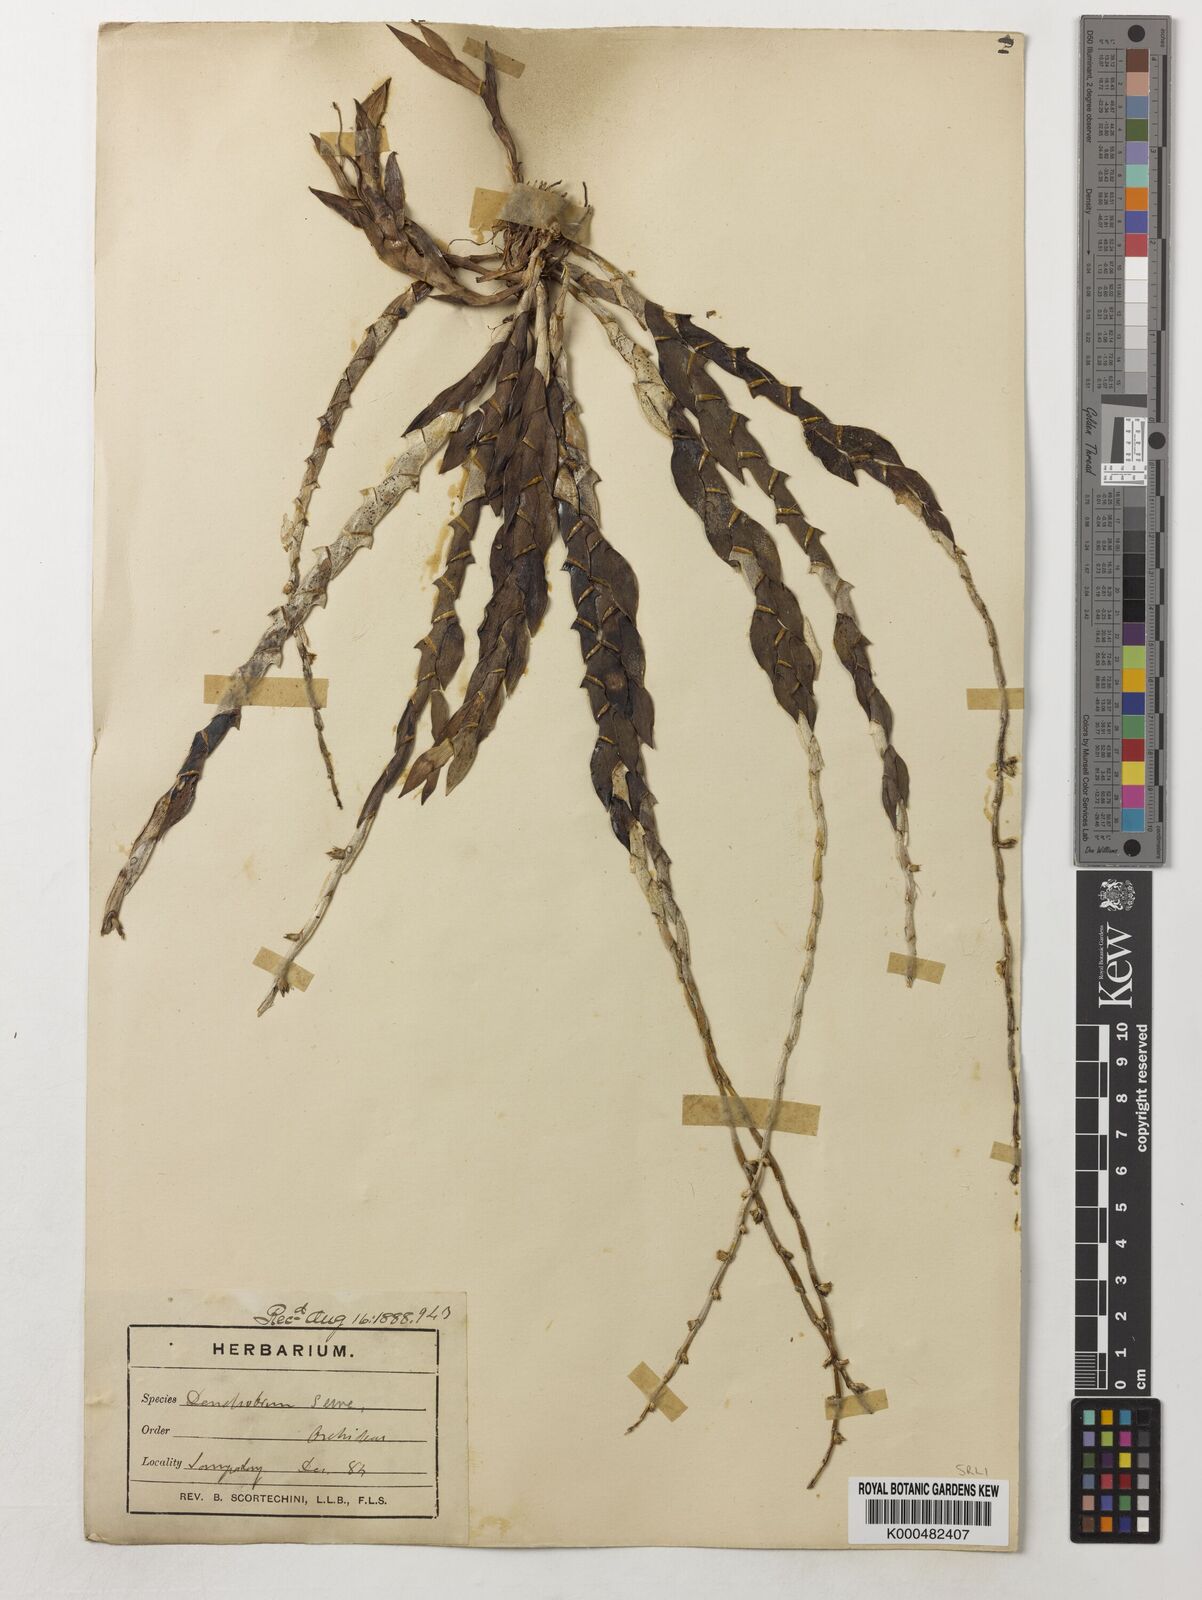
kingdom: Plantae
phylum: Tracheophyta
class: Liliopsida
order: Asparagales
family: Orchidaceae
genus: Dendrobium
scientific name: Dendrobium aloifolium
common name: Aloe-like dendrobium
